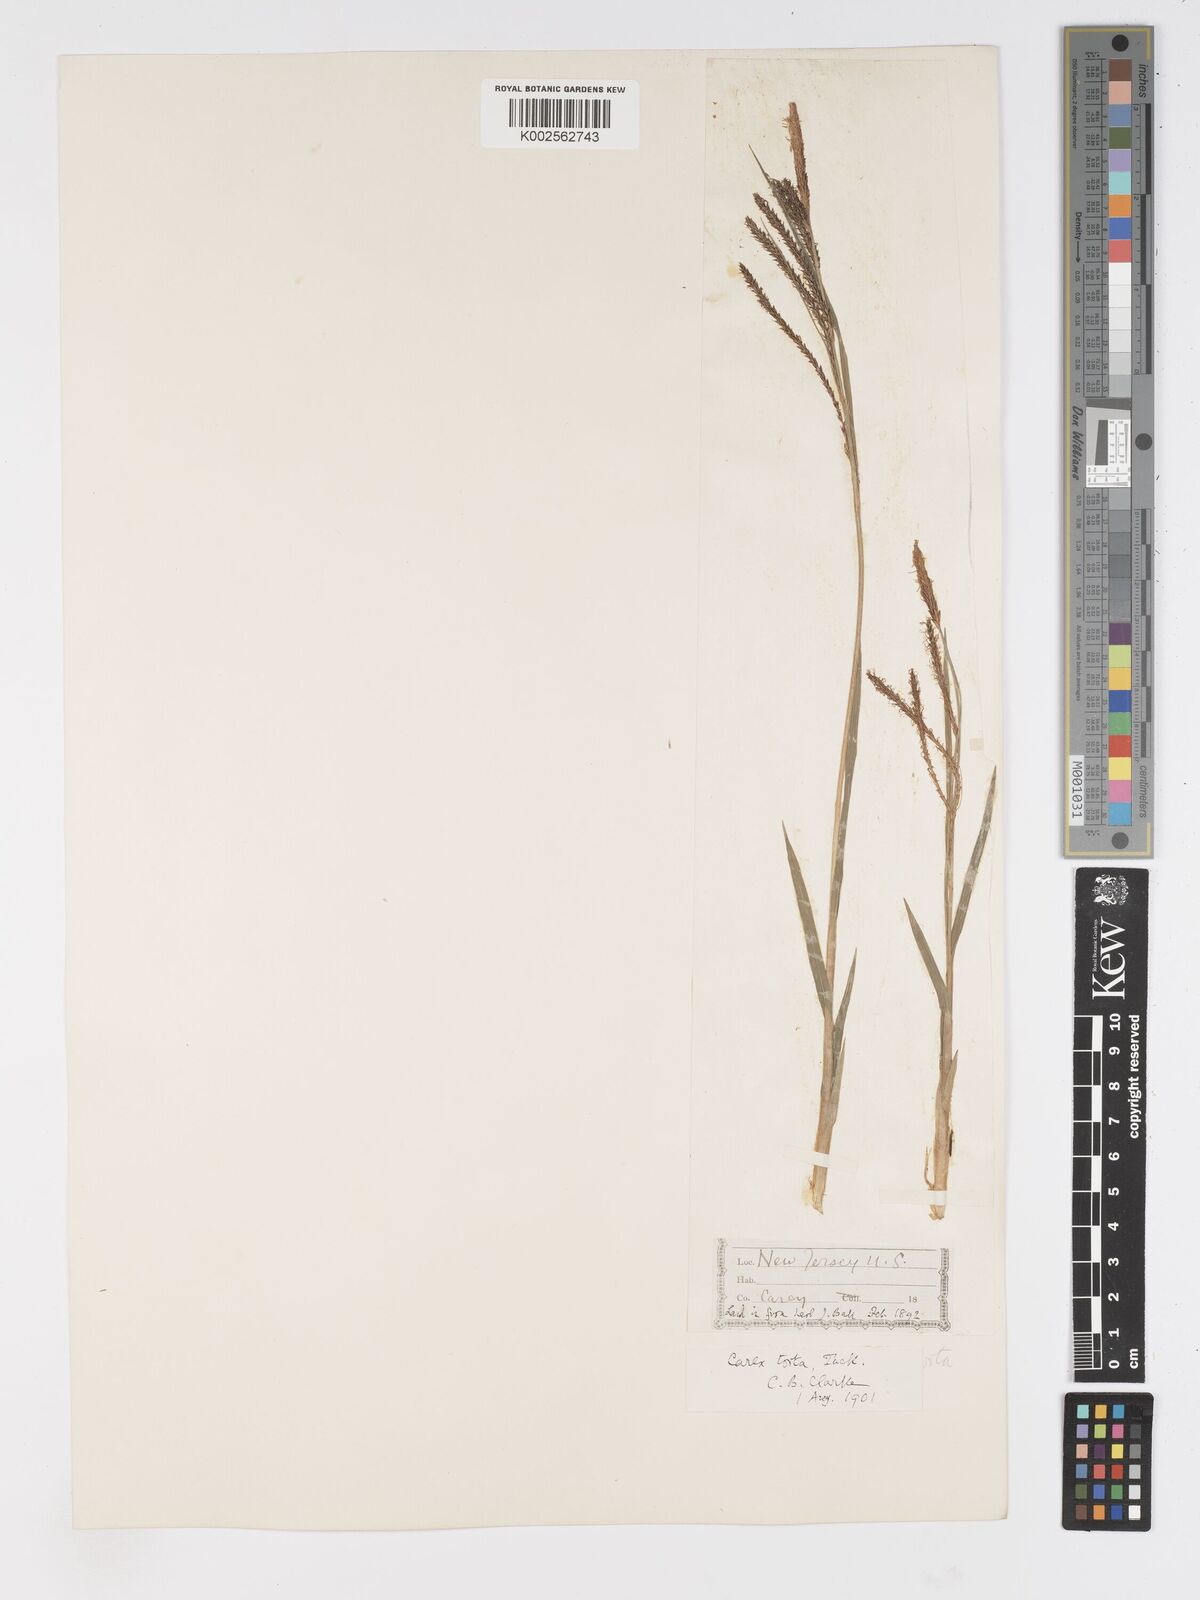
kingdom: Plantae
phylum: Tracheophyta
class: Liliopsida
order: Poales
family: Cyperaceae
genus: Carex
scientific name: Carex torta
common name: Twisted sedge
